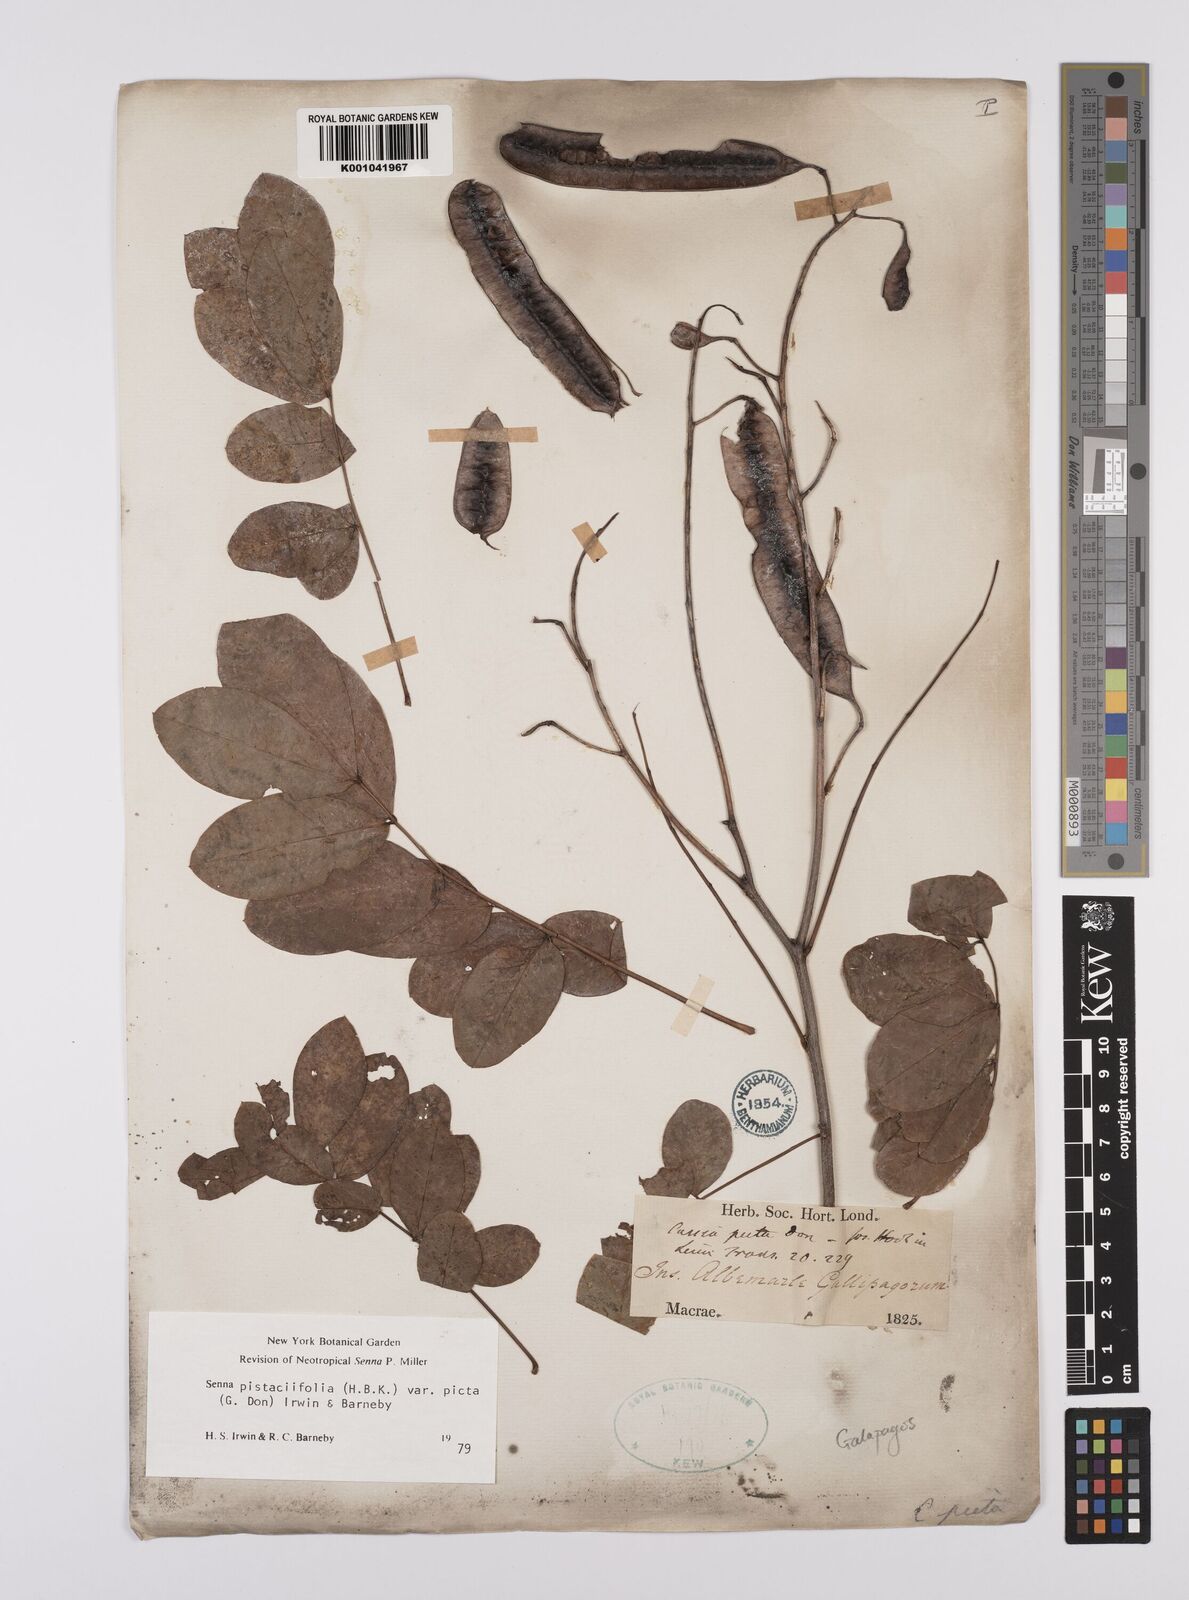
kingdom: Plantae
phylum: Tracheophyta
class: Magnoliopsida
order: Fabales
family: Fabaceae
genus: Senna
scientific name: Senna pistaciifolia
